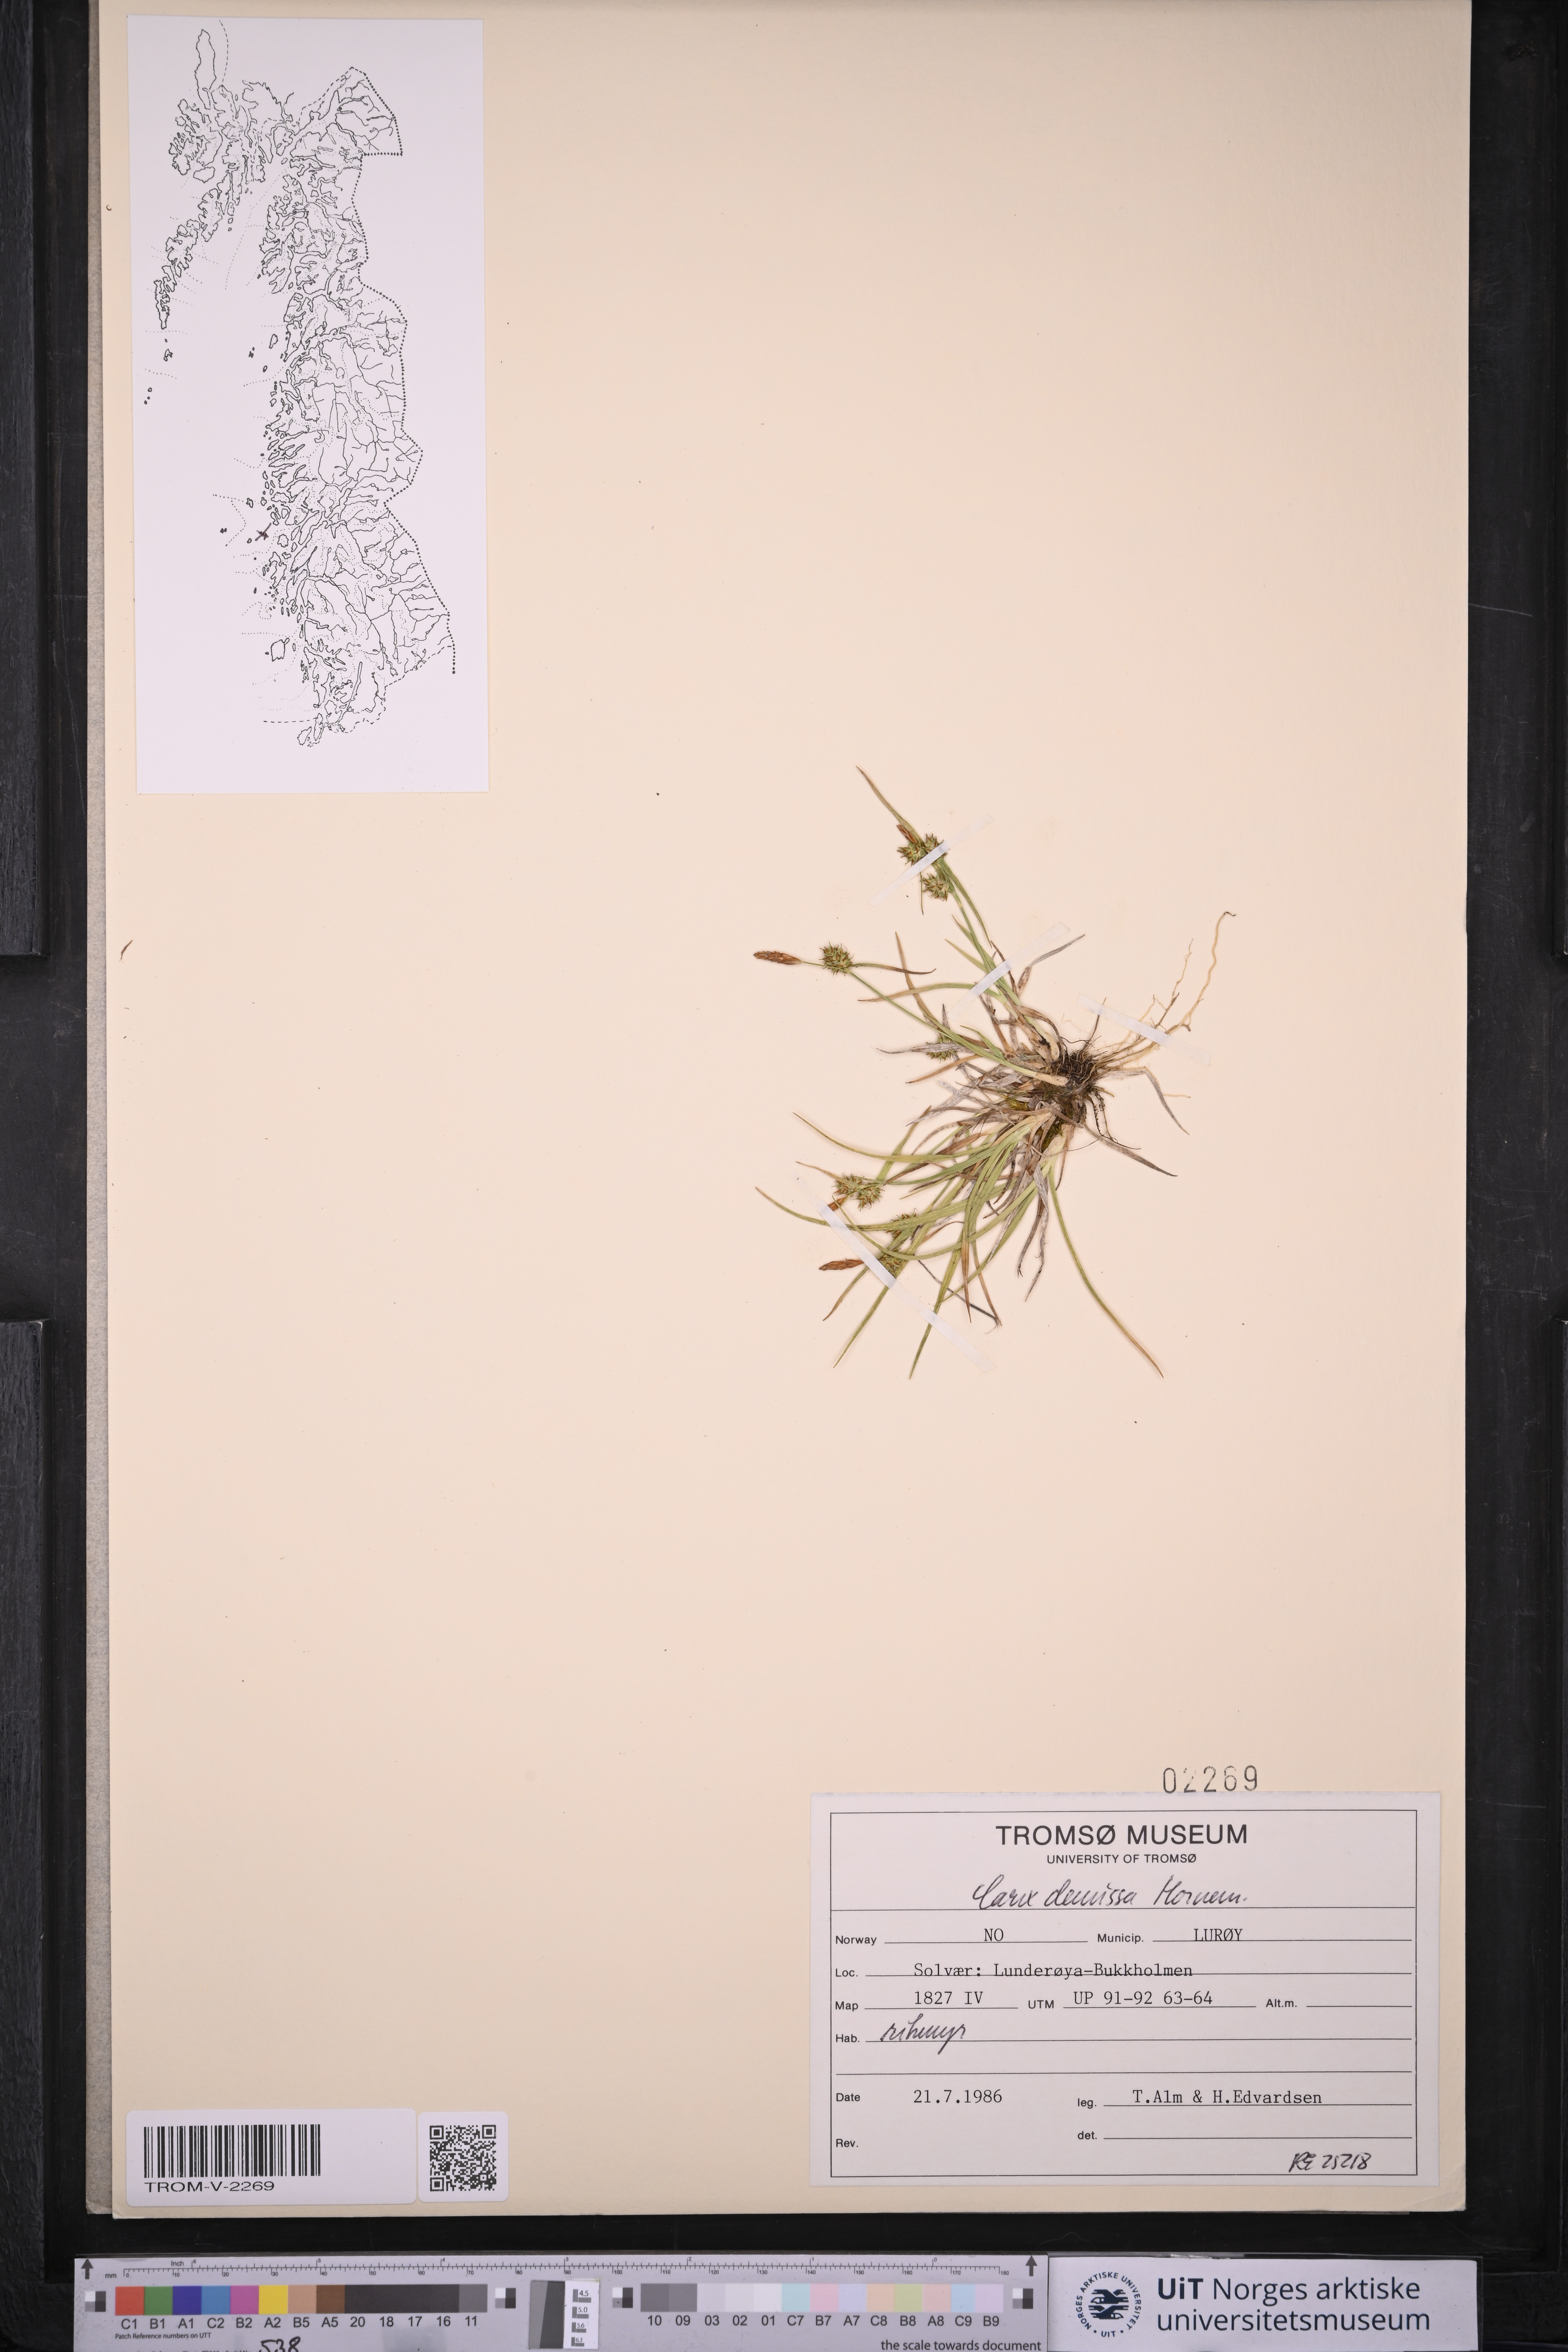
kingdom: Plantae
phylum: Tracheophyta
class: Liliopsida
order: Poales
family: Cyperaceae
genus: Carex
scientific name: Carex demissa
